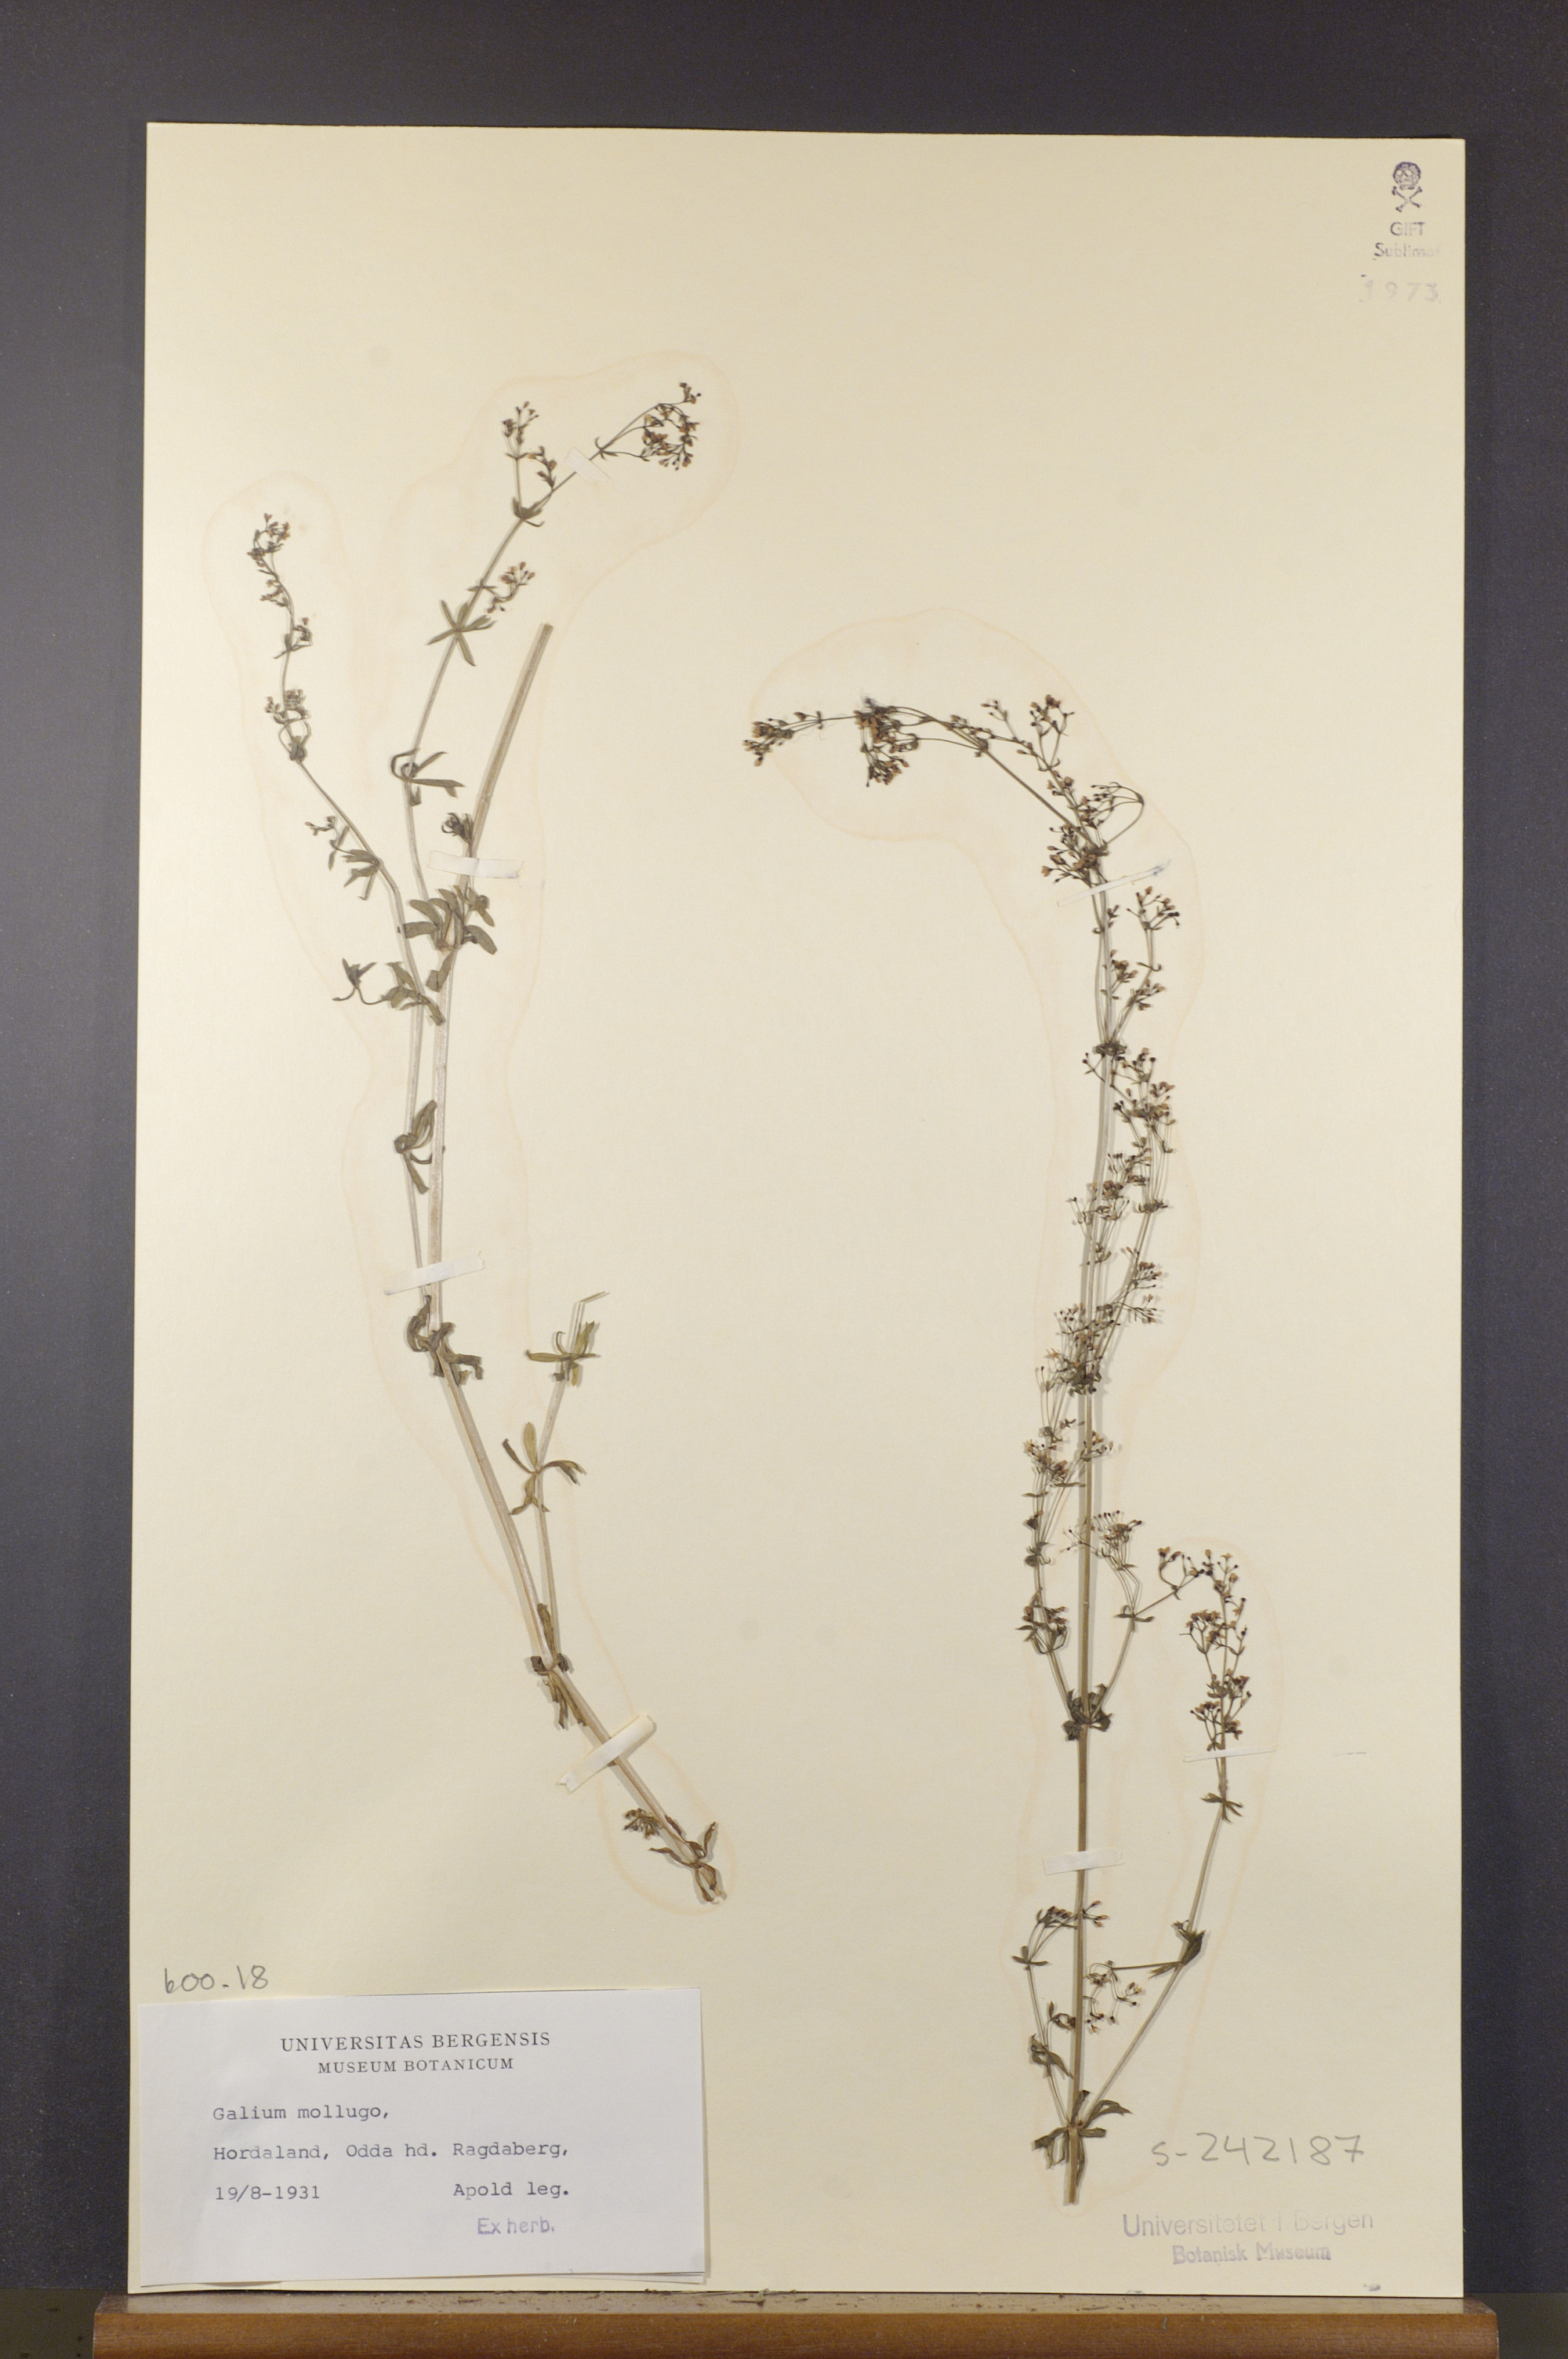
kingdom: Plantae
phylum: Tracheophyta
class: Magnoliopsida
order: Gentianales
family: Rubiaceae
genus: Galium
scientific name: Galium mollugo
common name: Hedge bedstraw
